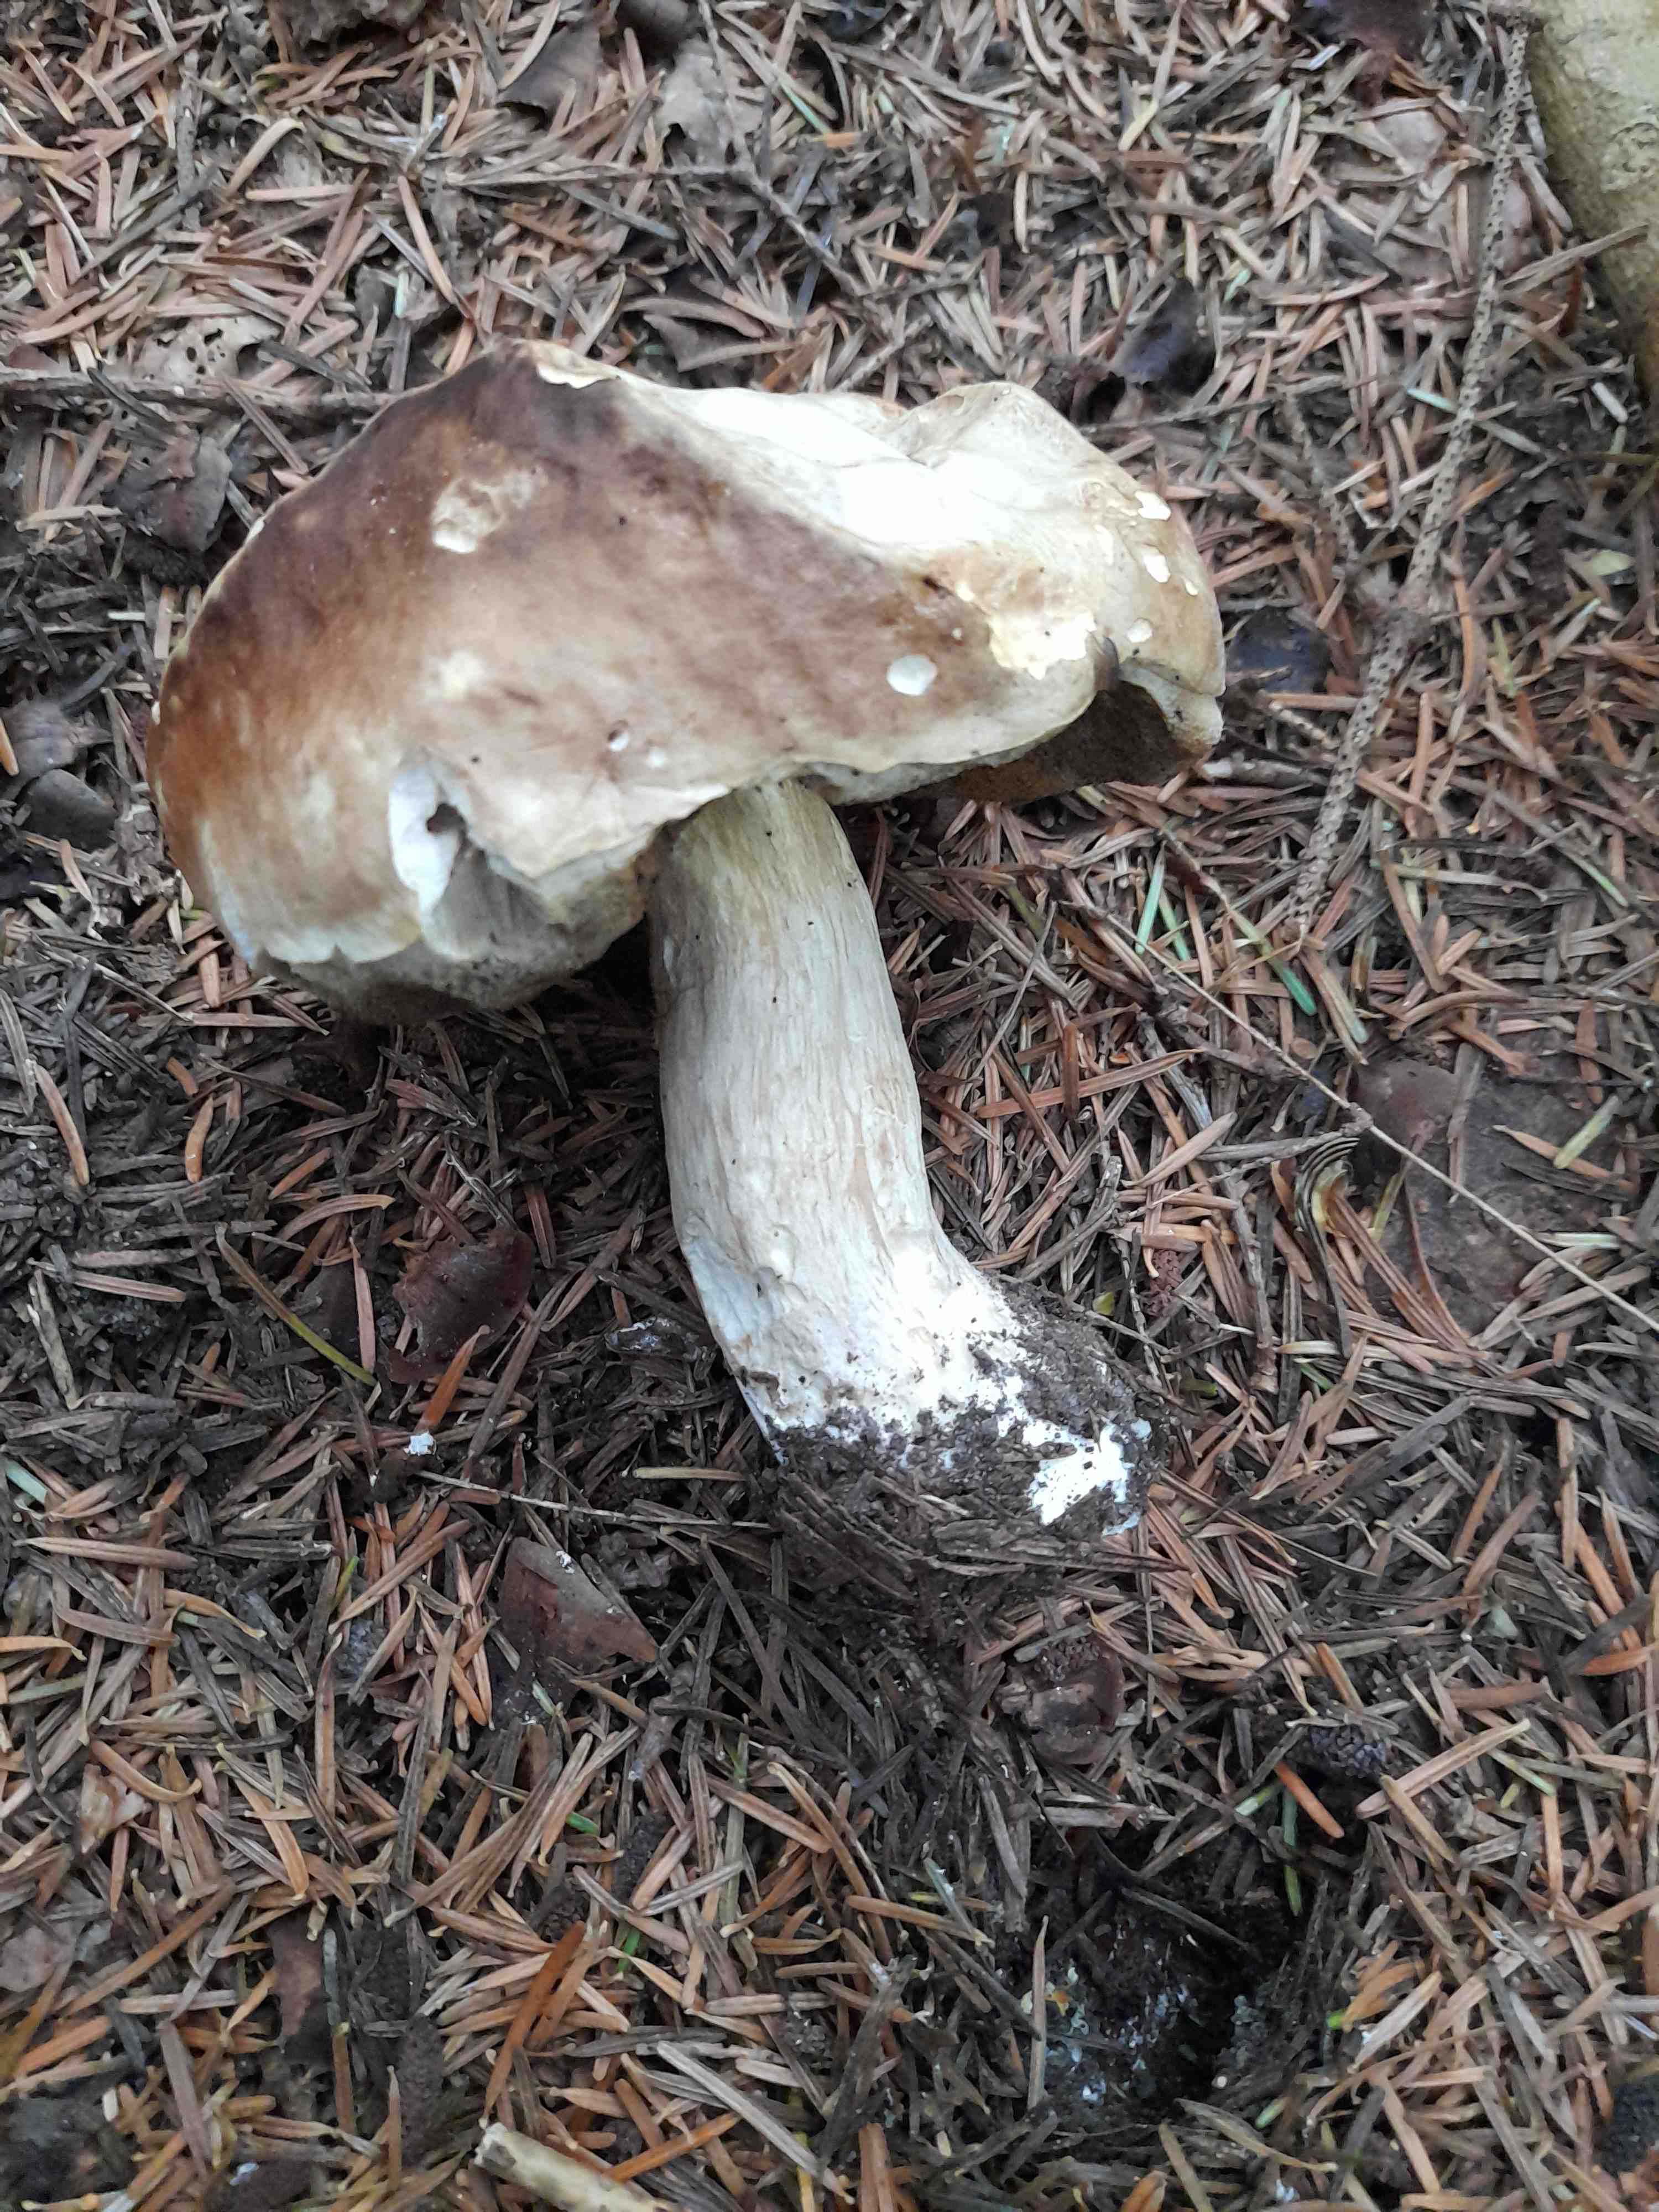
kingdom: Fungi
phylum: Basidiomycota
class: Agaricomycetes
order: Boletales
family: Boletaceae
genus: Boletus
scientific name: Boletus edulis
